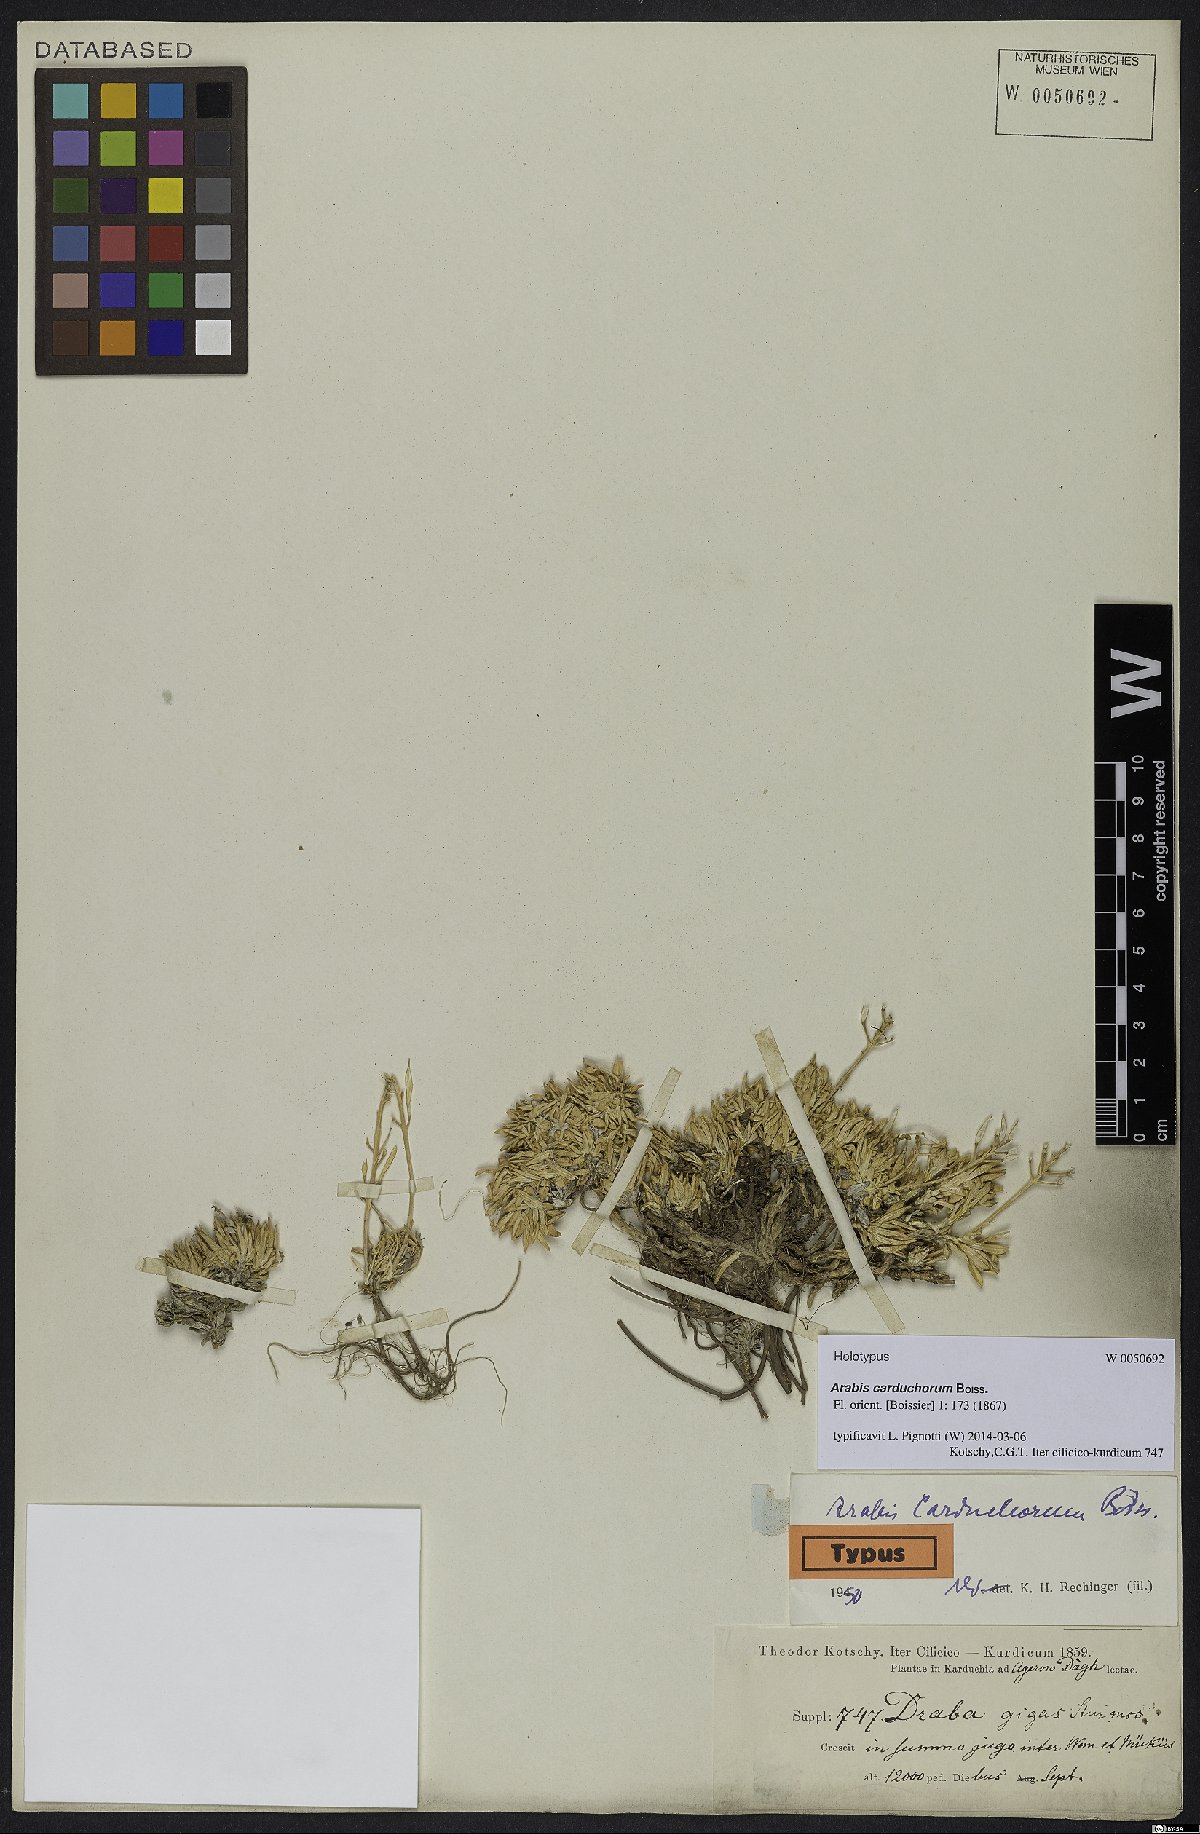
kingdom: Plantae
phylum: Tracheophyta
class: Magnoliopsida
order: Brassicales
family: Brassicaceae
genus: Arabis
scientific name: Arabis carduchorum
